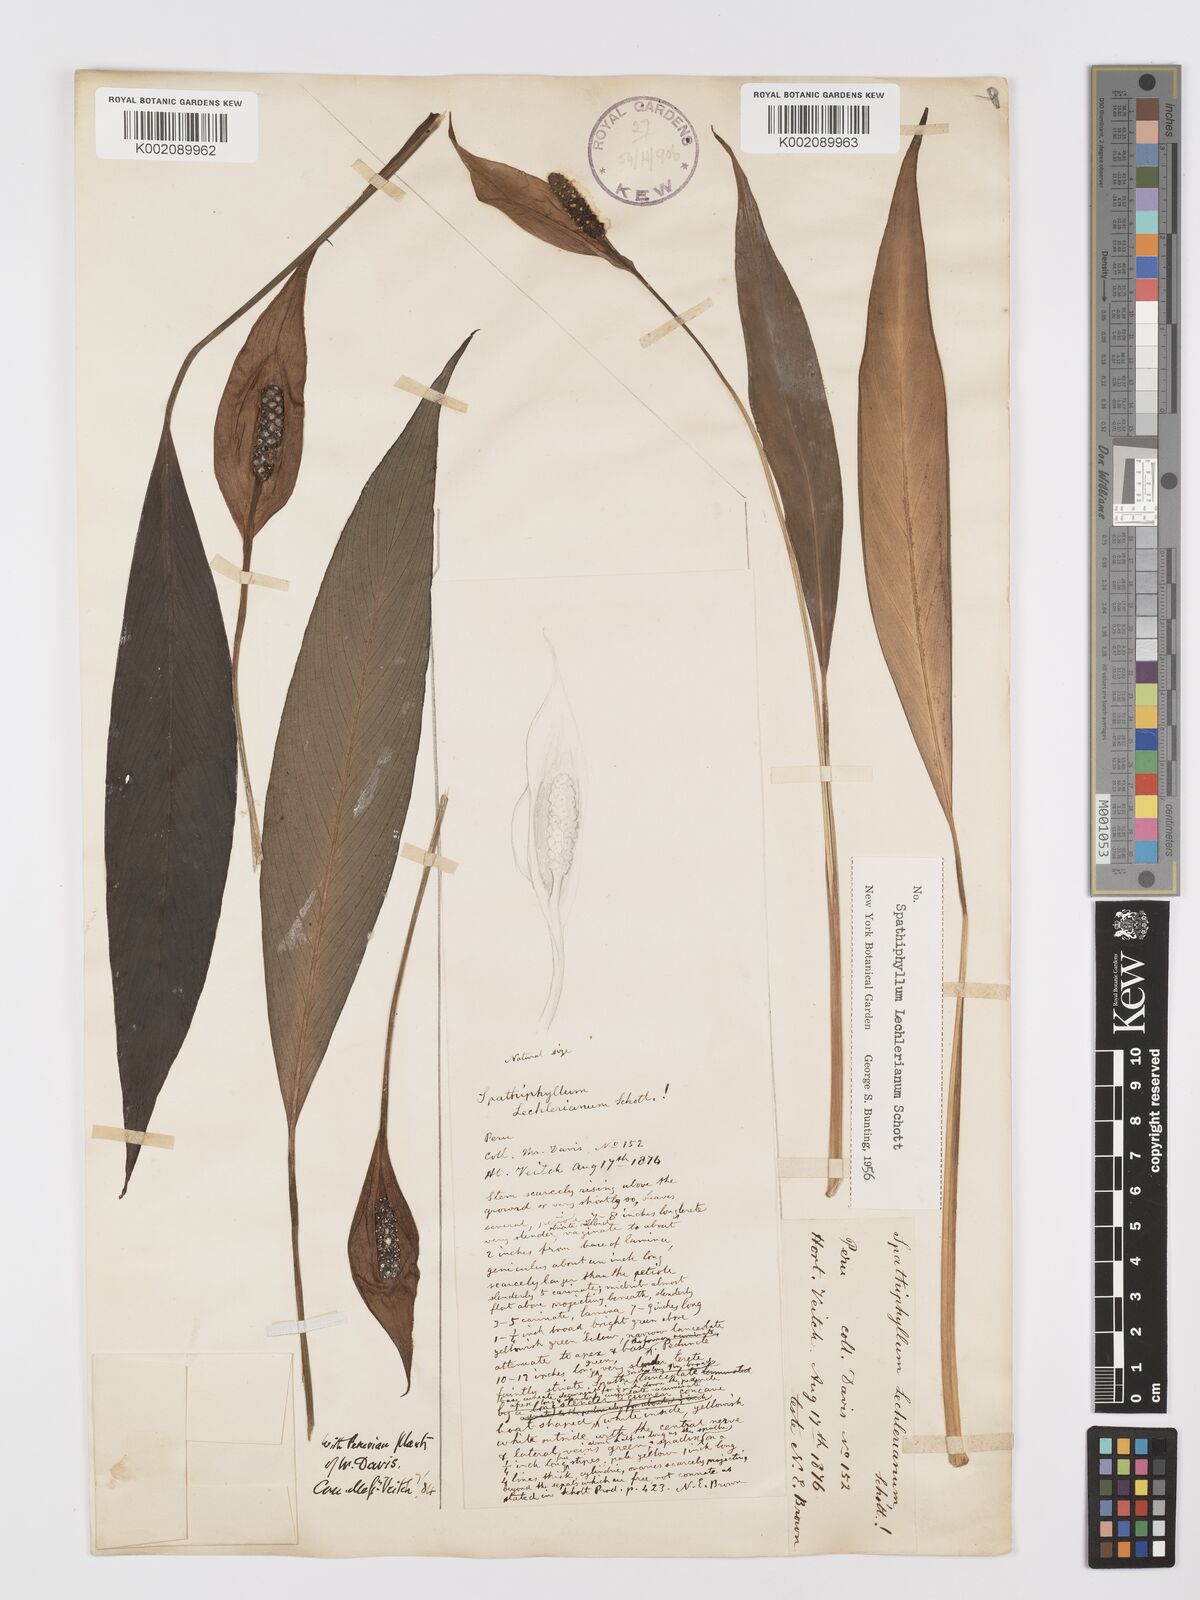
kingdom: Plantae
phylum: Tracheophyta
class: Liliopsida
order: Alismatales
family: Araceae
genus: Spathiphyllum
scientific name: Spathiphyllum lechlerianum
